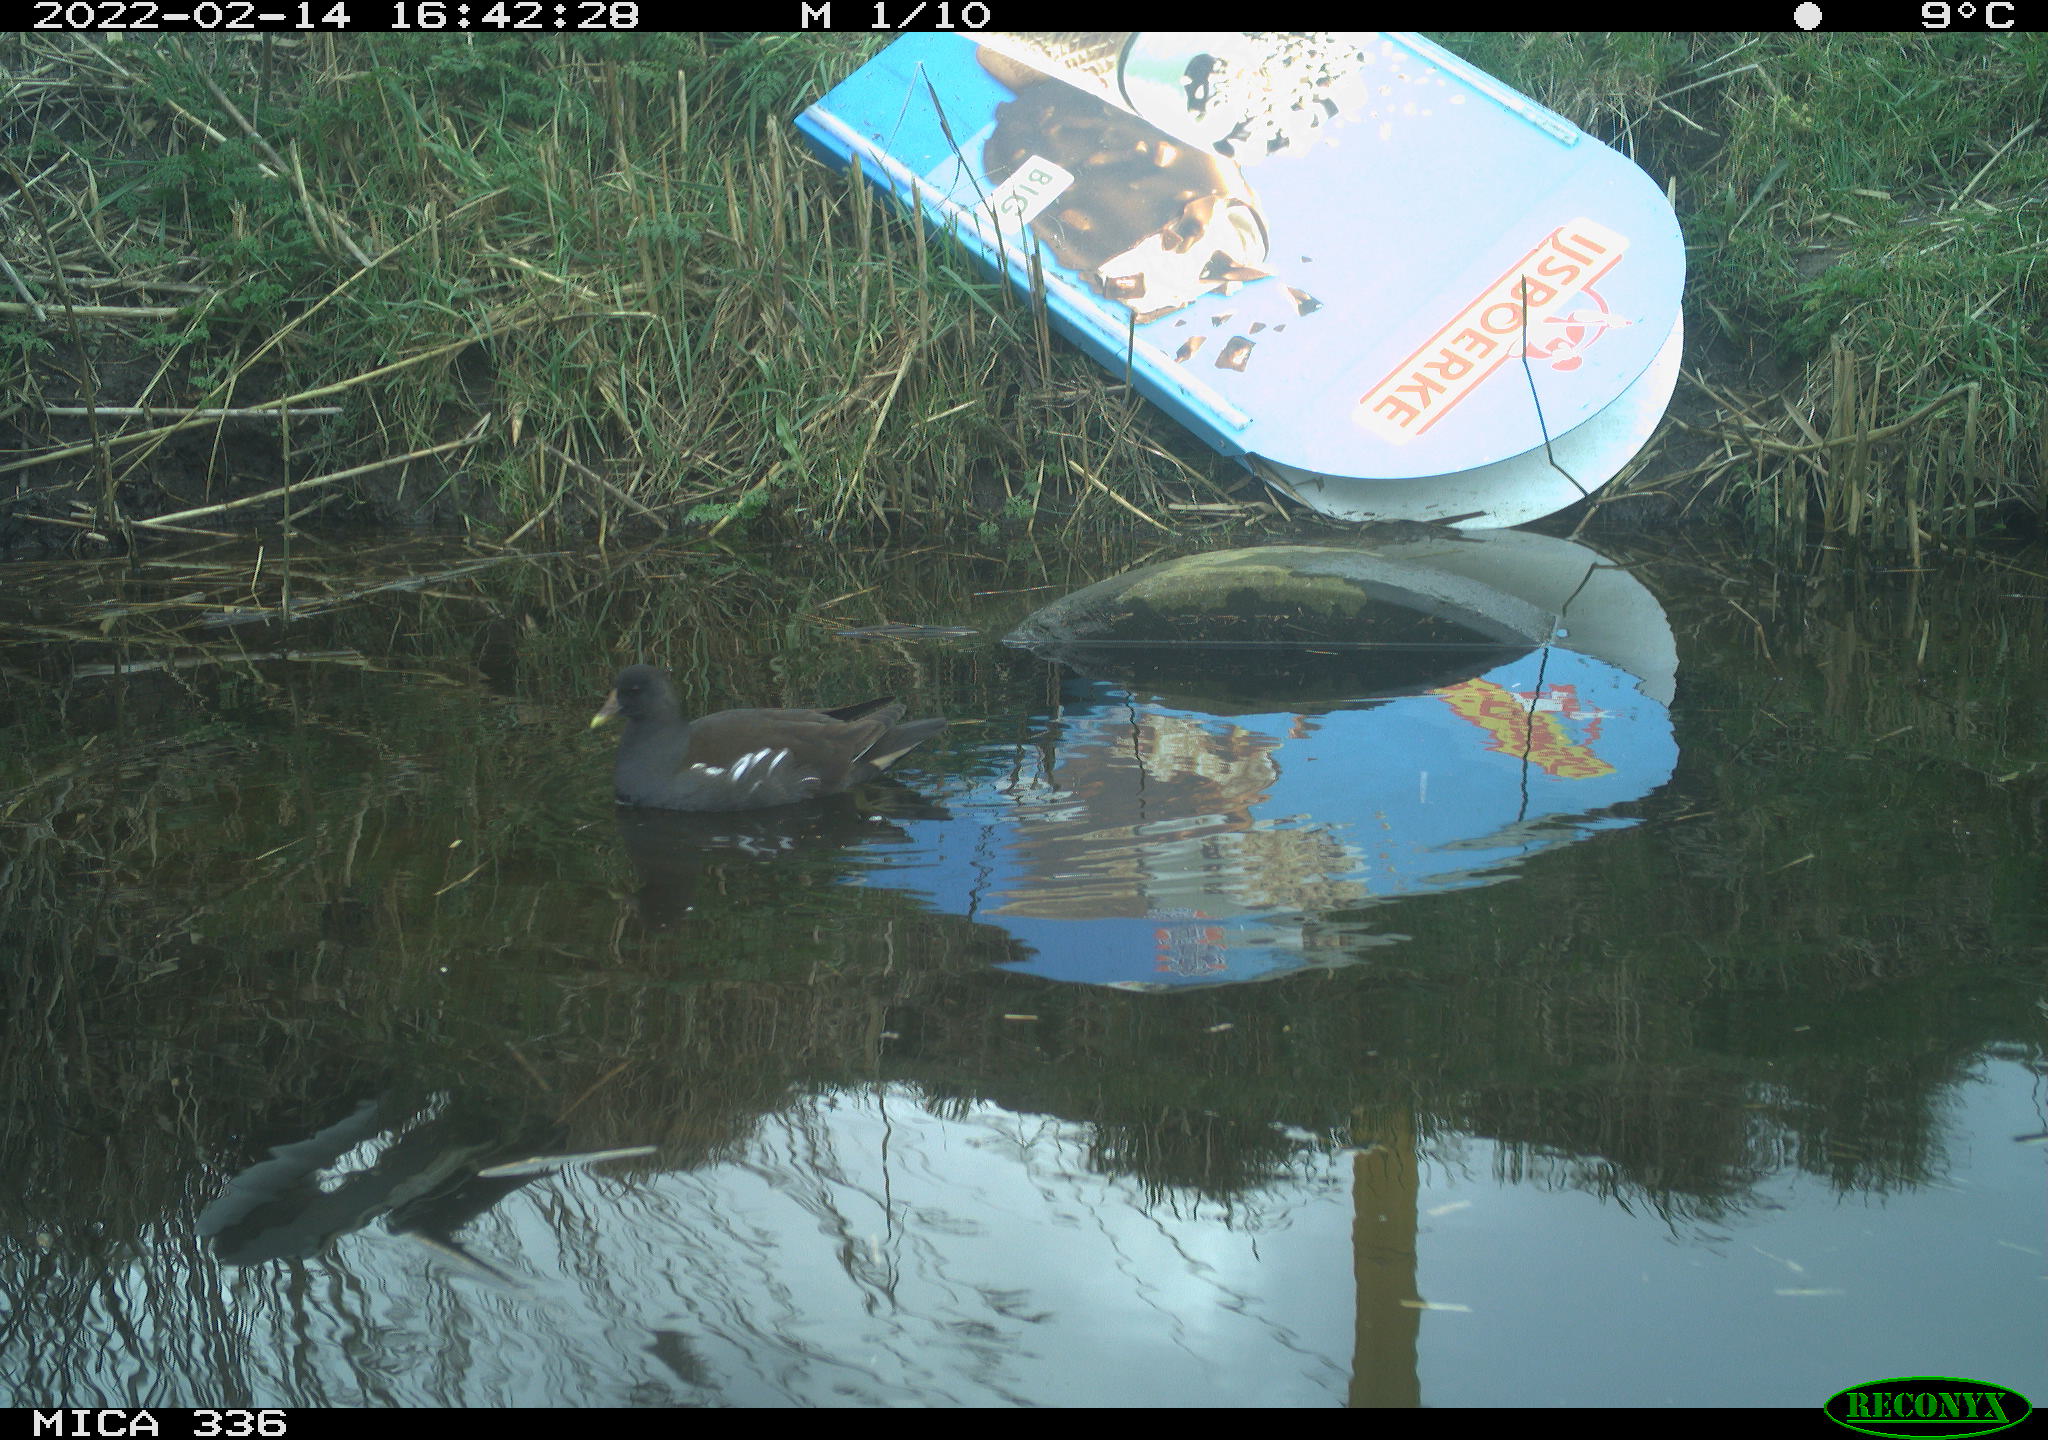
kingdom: Animalia
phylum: Chordata
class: Aves
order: Gruiformes
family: Rallidae
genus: Gallinula
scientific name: Gallinula chloropus
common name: Common moorhen
